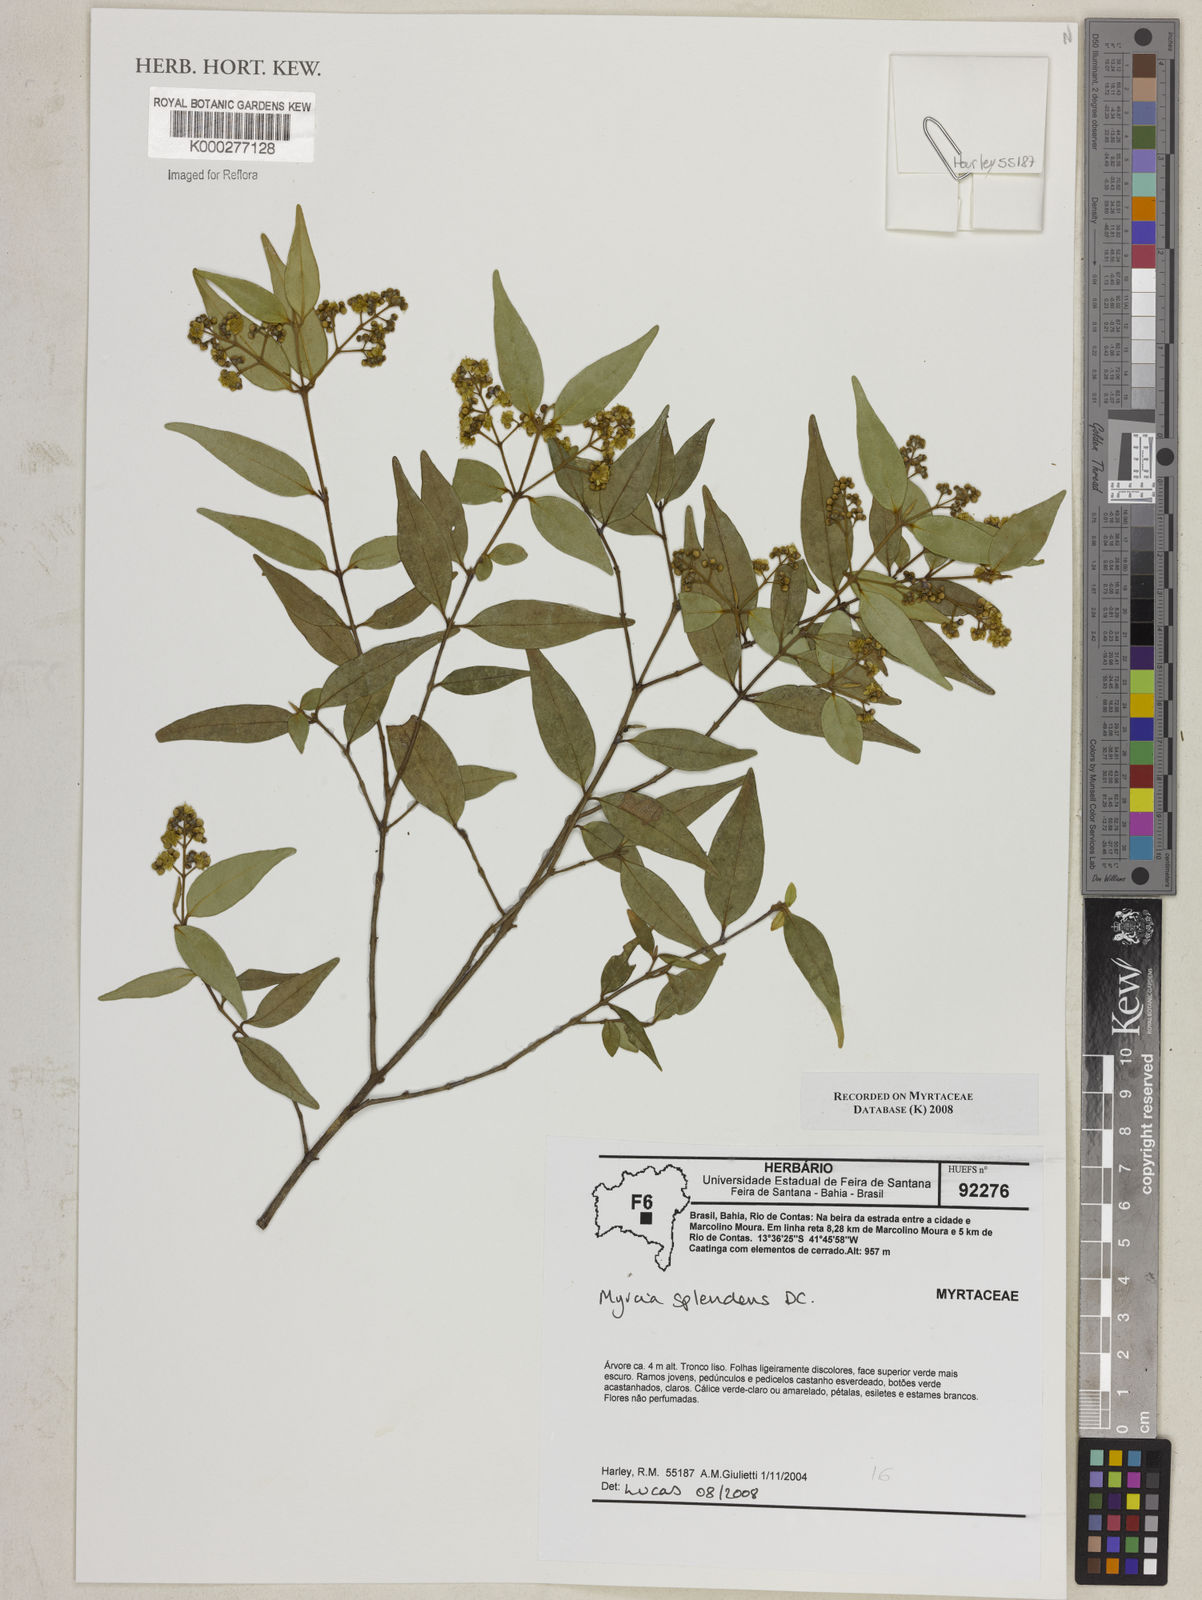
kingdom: Plantae
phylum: Tracheophyta
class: Magnoliopsida
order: Myrtales
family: Myrtaceae
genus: Myrcia
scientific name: Myrcia splendens
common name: Surinam cherry
